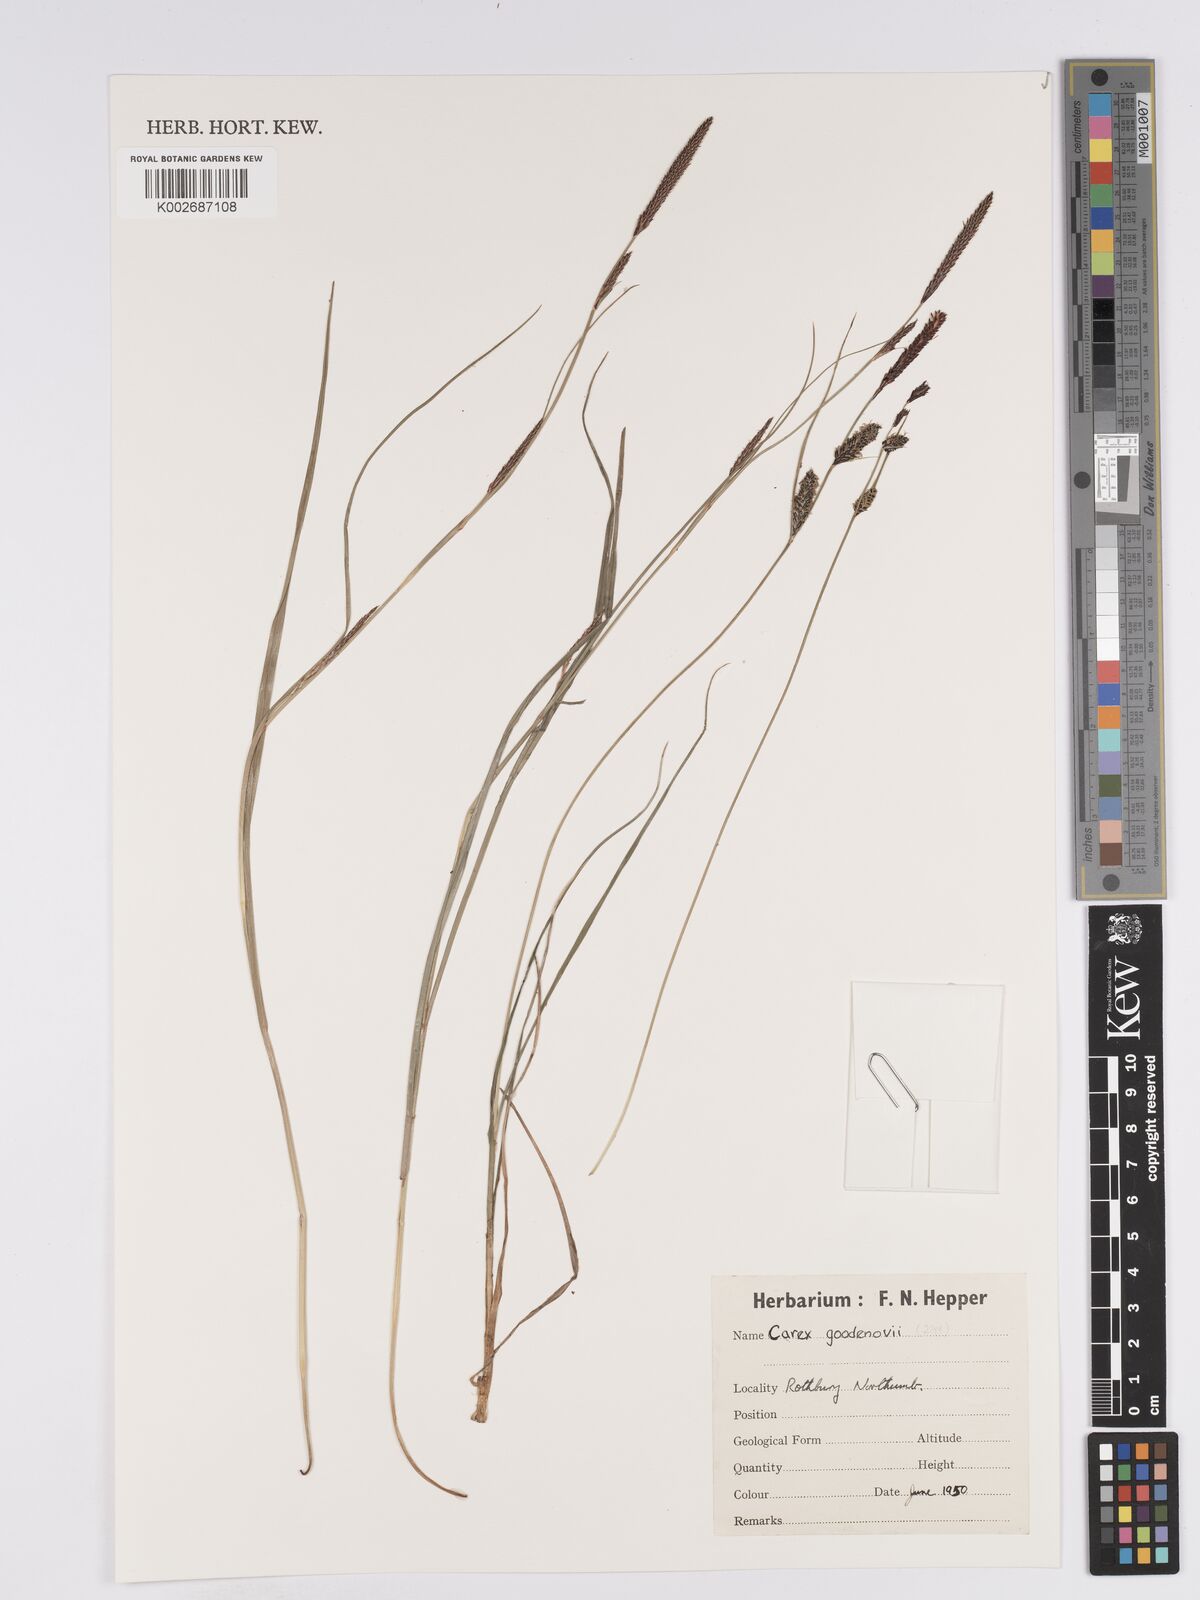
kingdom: Plantae
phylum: Tracheophyta
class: Liliopsida
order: Poales
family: Cyperaceae
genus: Carex
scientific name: Carex nigra
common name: Common sedge
